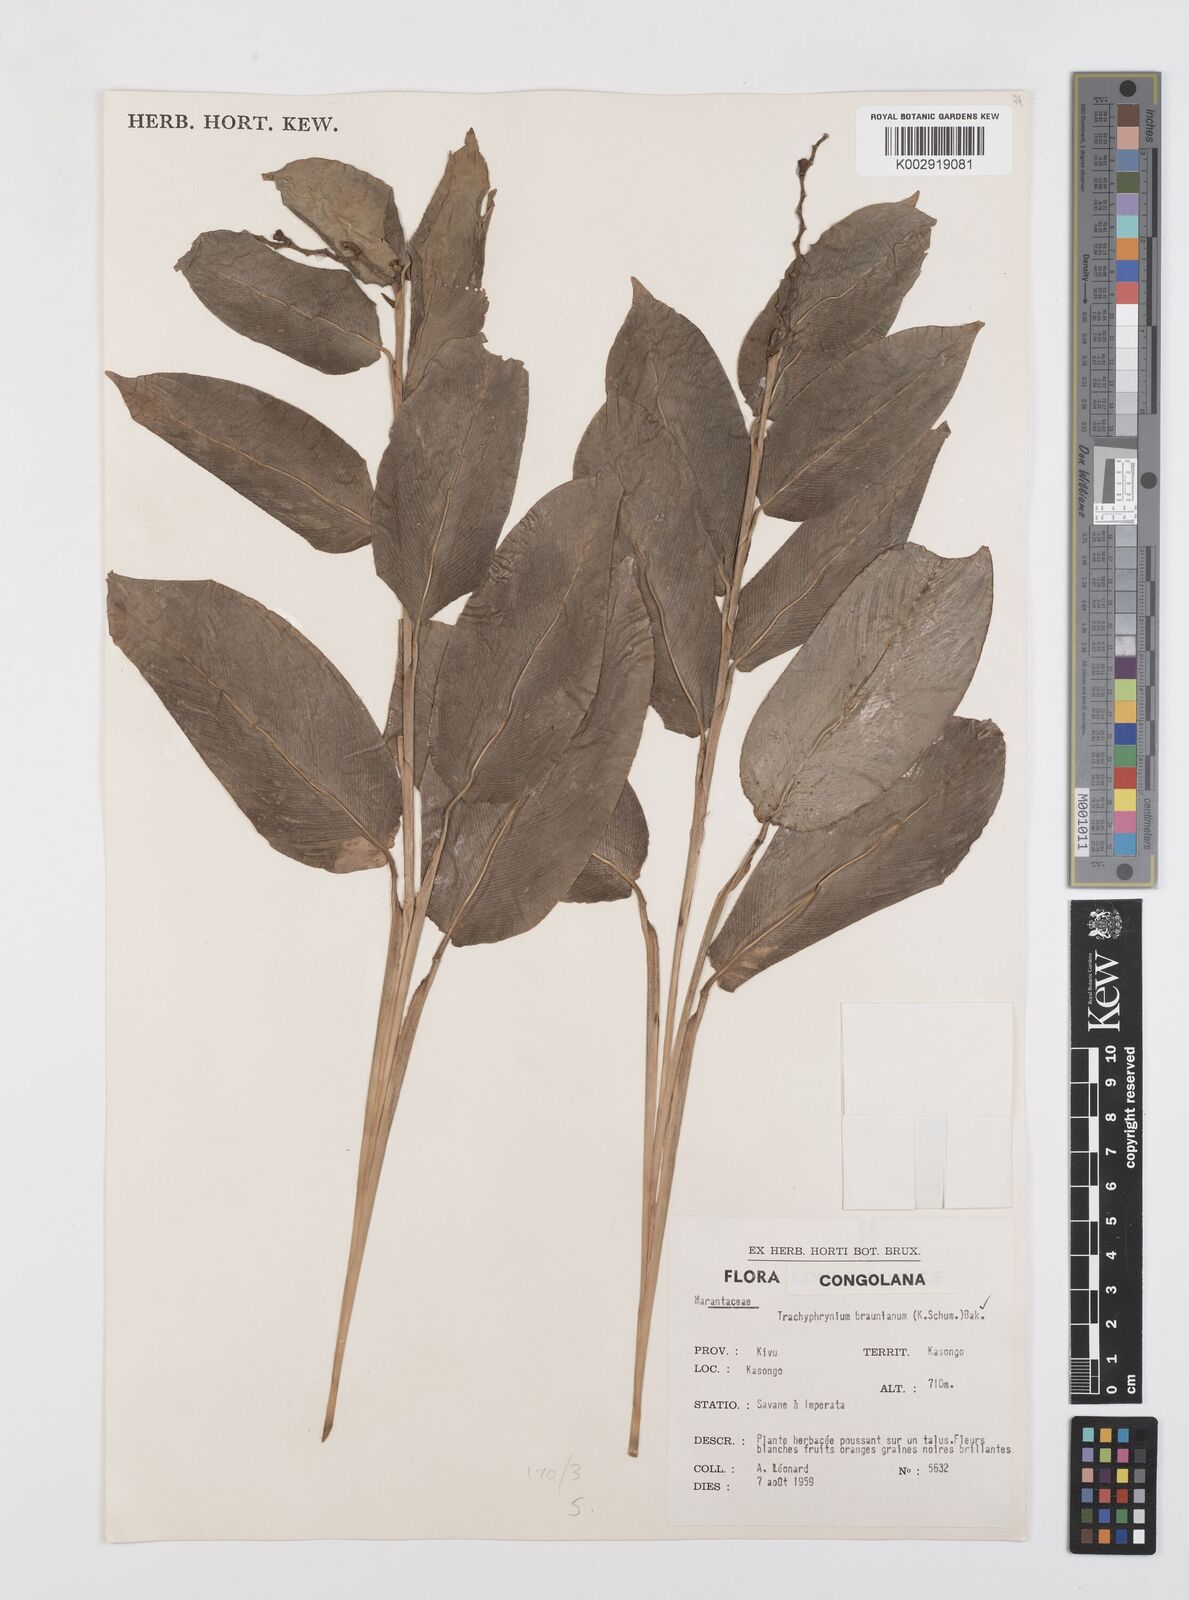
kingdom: Plantae
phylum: Tracheophyta
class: Liliopsida
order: Zingiberales
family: Marantaceae
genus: Trachyphrynium
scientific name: Trachyphrynium braunianum
